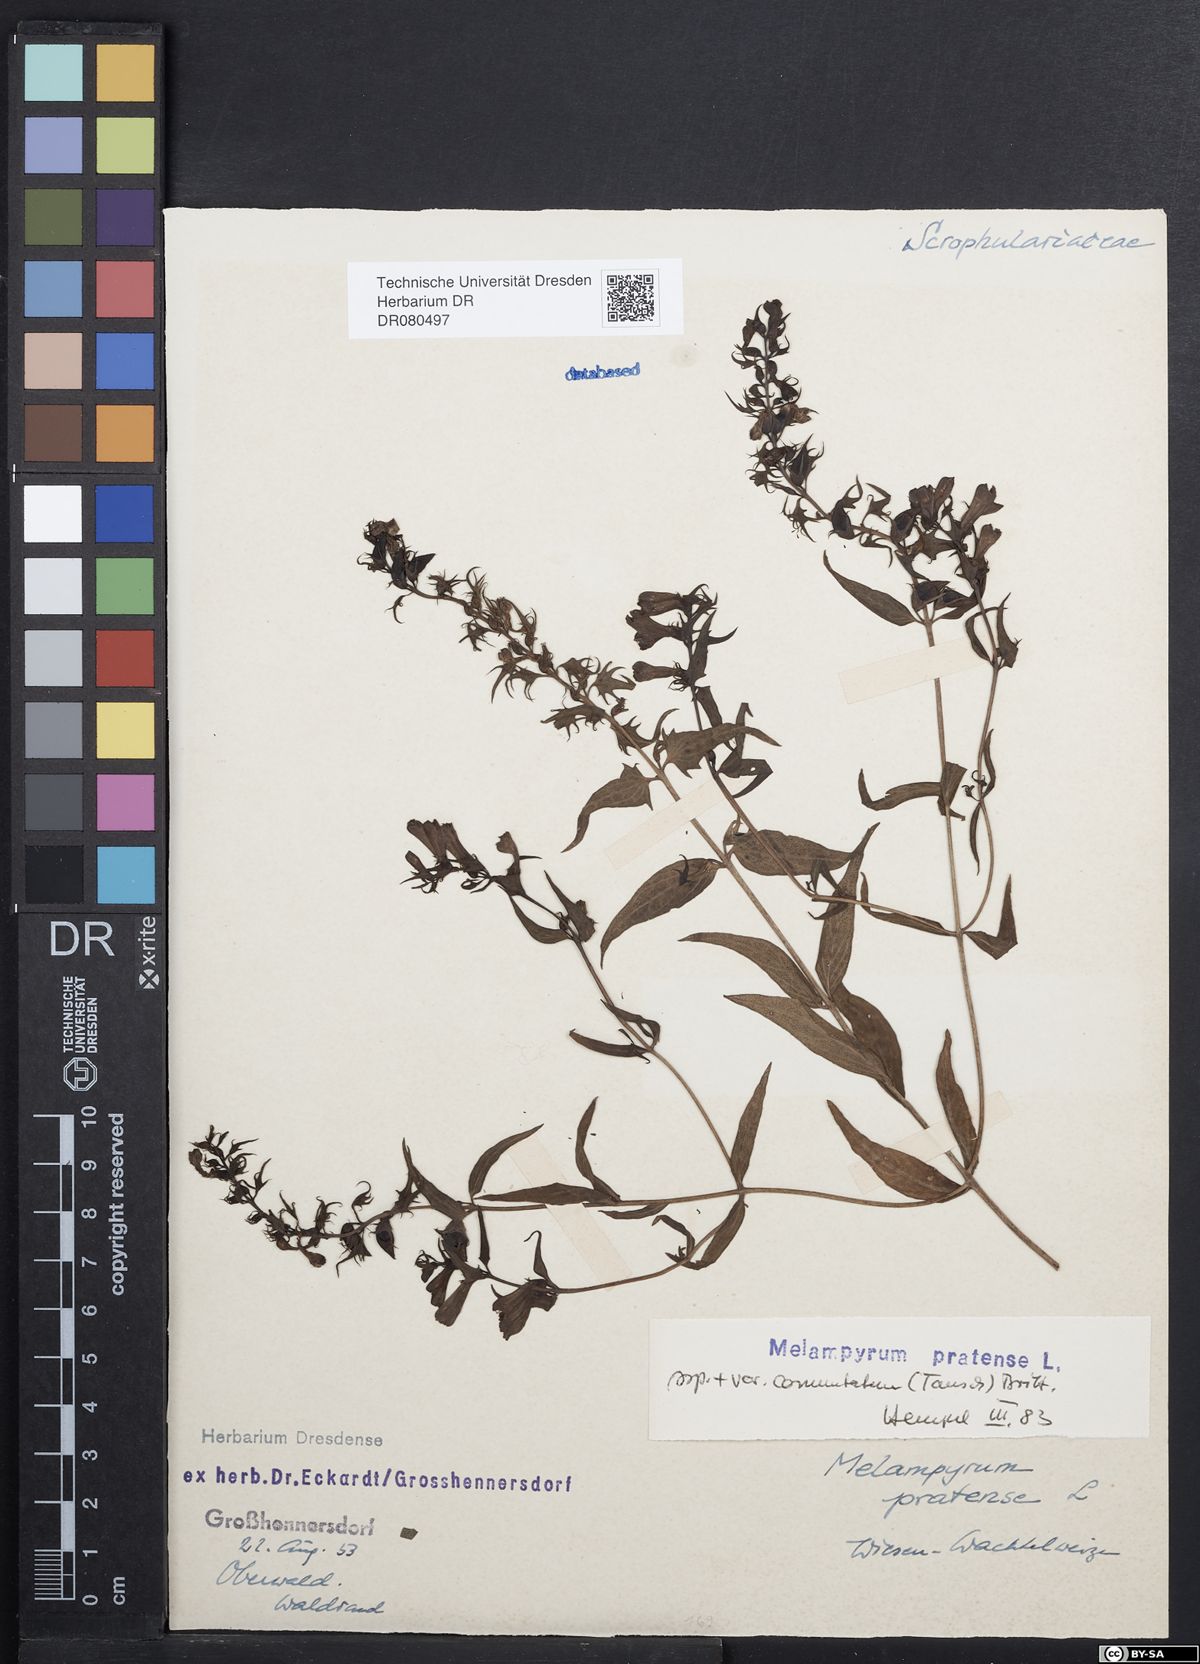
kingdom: Plantae
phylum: Tracheophyta
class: Magnoliopsida
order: Lamiales
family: Orobanchaceae
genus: Melampyrum
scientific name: Melampyrum pratense
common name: Common cow-wheat
